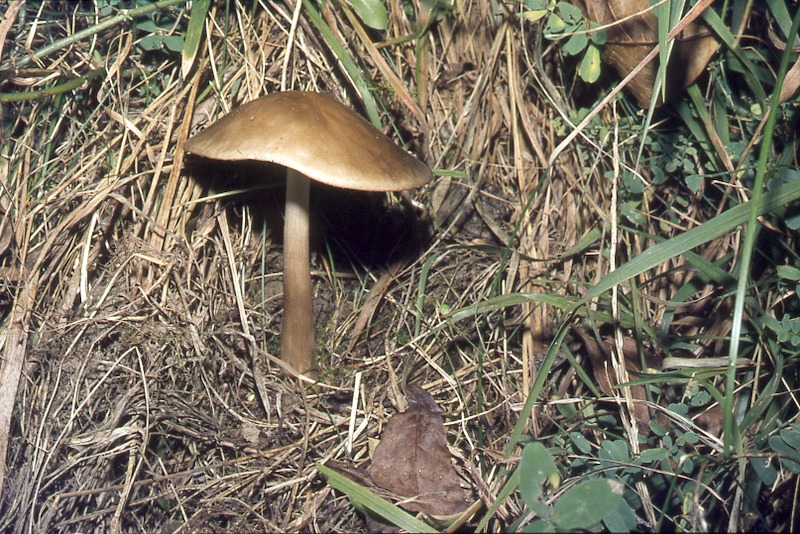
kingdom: Fungi
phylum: Basidiomycota
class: Agaricomycetes
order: Agaricales
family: Physalacriaceae
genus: Xerula
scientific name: Xerula pudens
